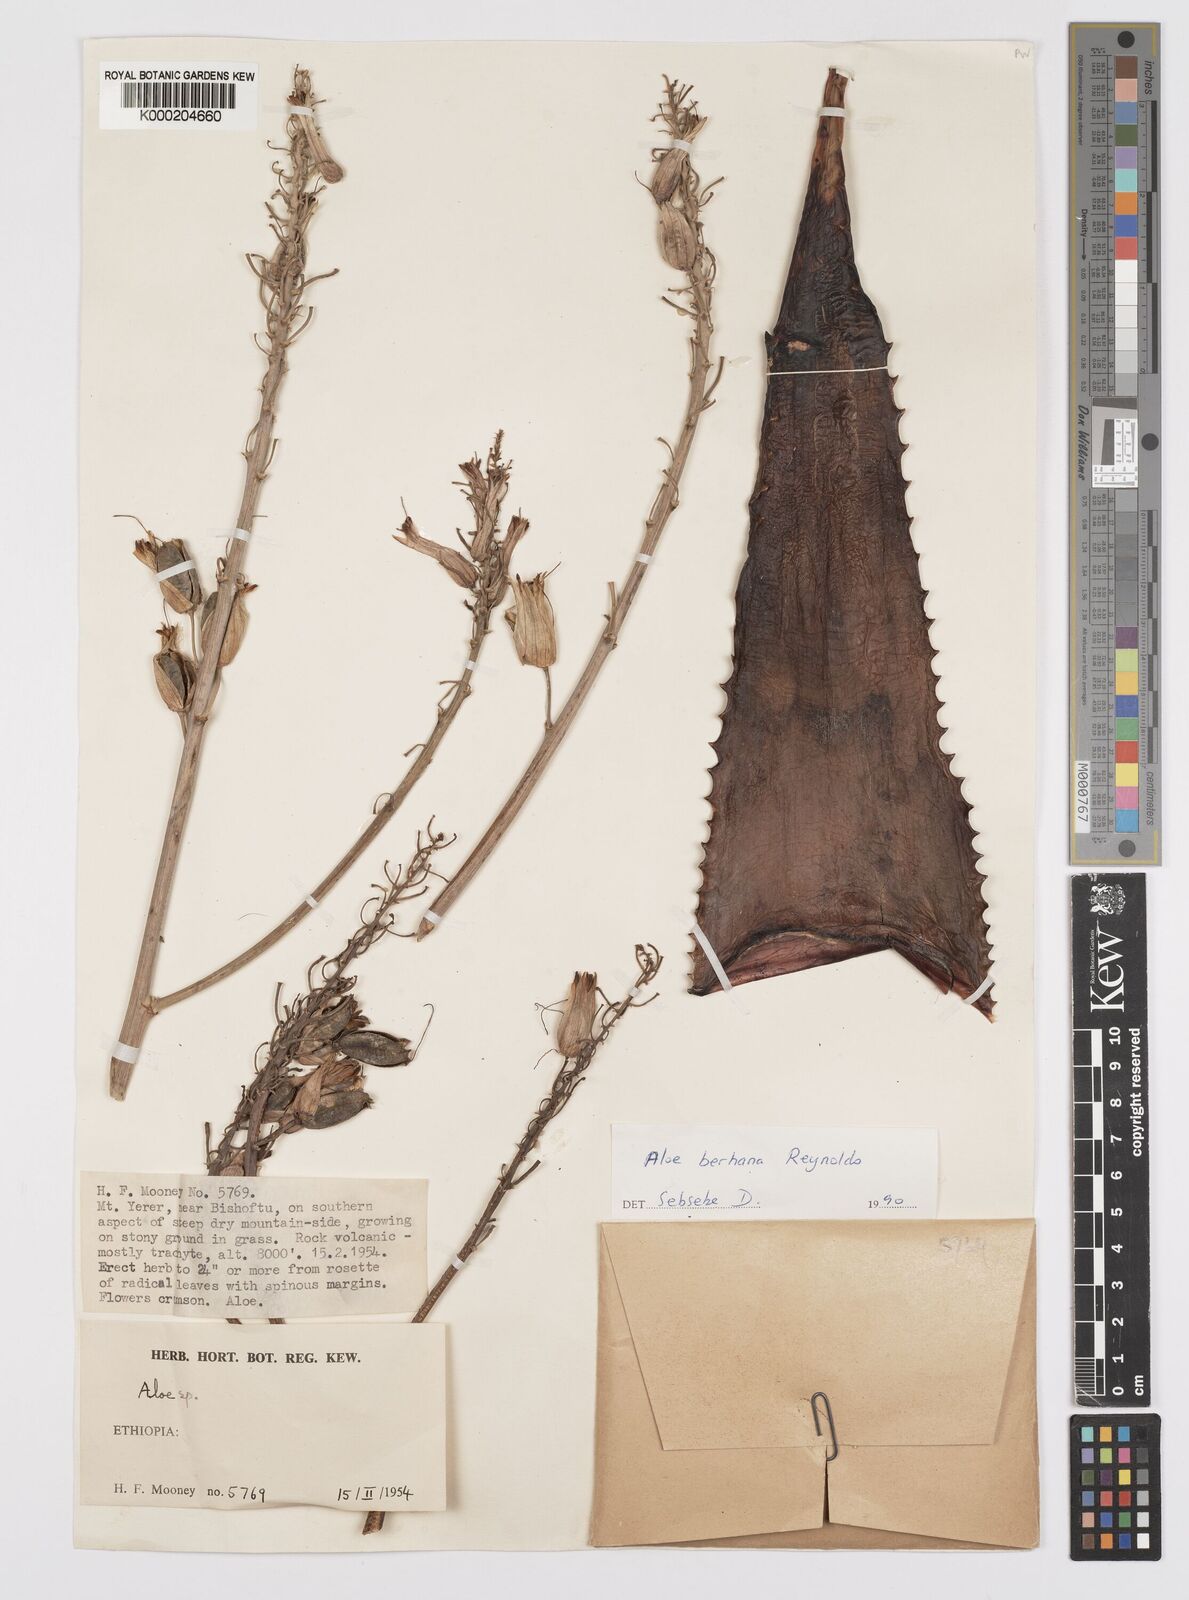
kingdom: Plantae
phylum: Tracheophyta
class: Liliopsida
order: Asparagales
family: Asphodelaceae
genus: Aloe
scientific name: Aloe debrana
